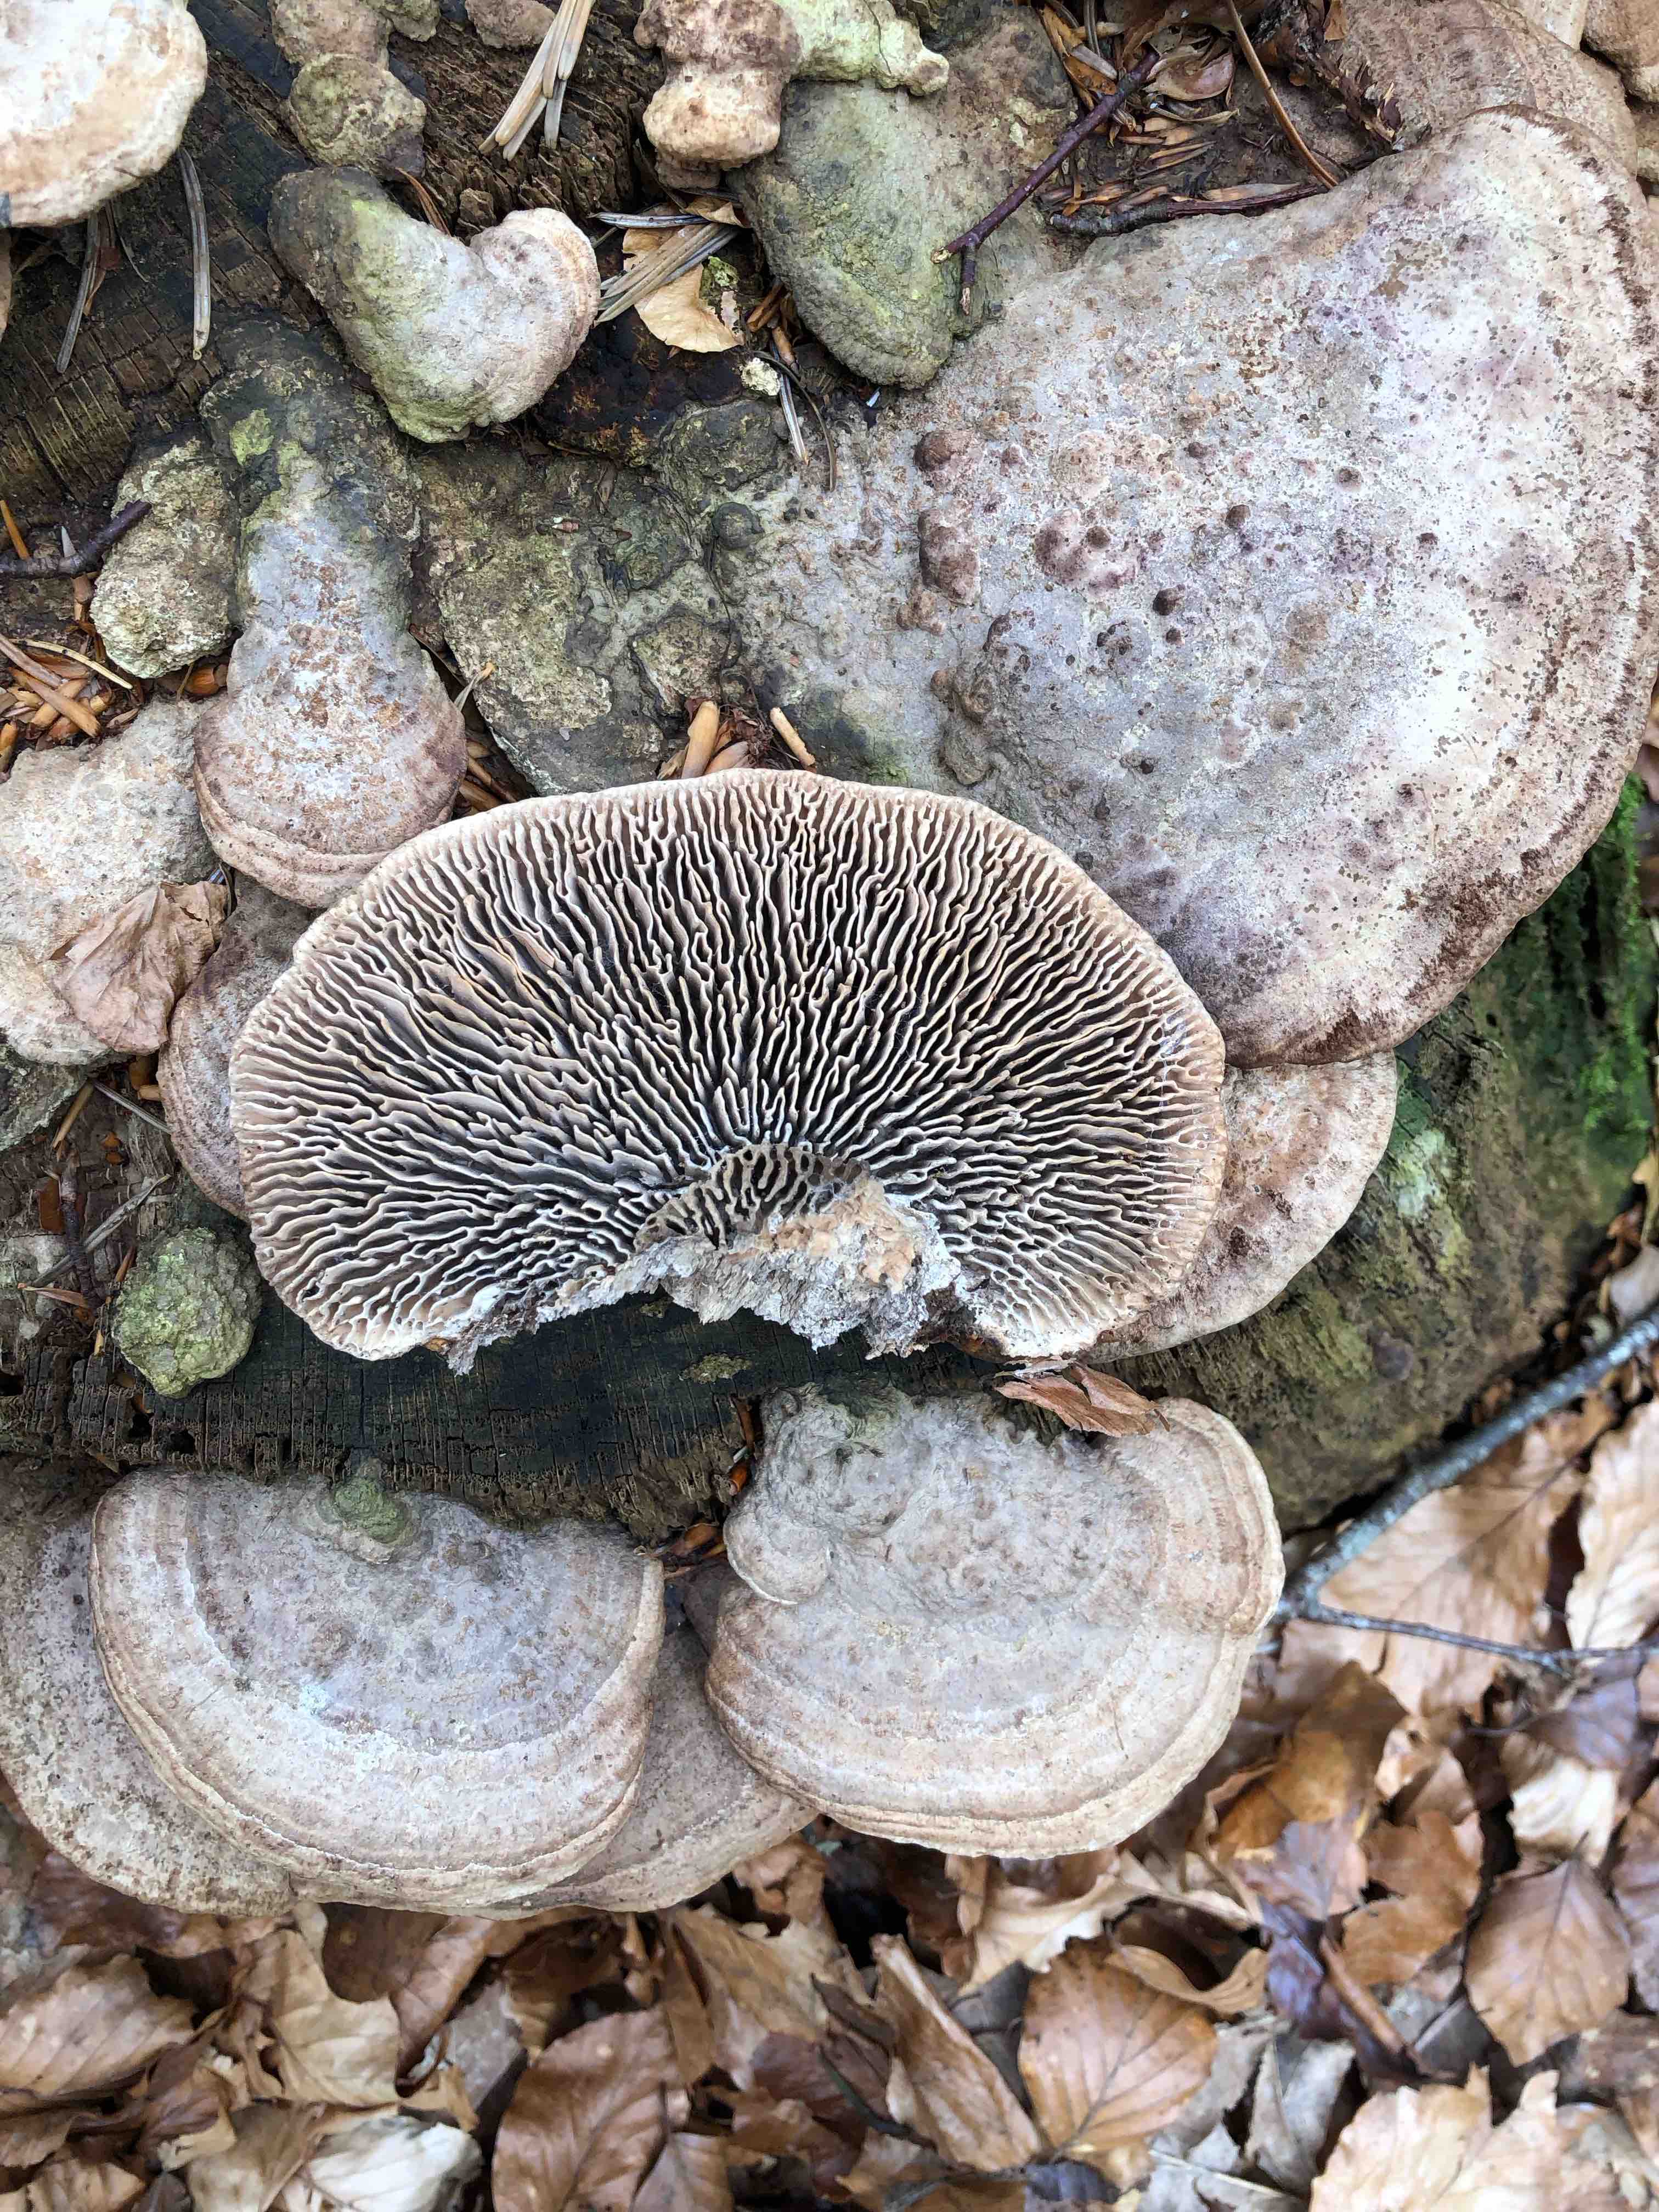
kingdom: Fungi
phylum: Basidiomycota
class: Agaricomycetes
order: Polyporales
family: Fomitopsidaceae
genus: Daedalea
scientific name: Daedalea quercina
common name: ege-labyrintsvamp
